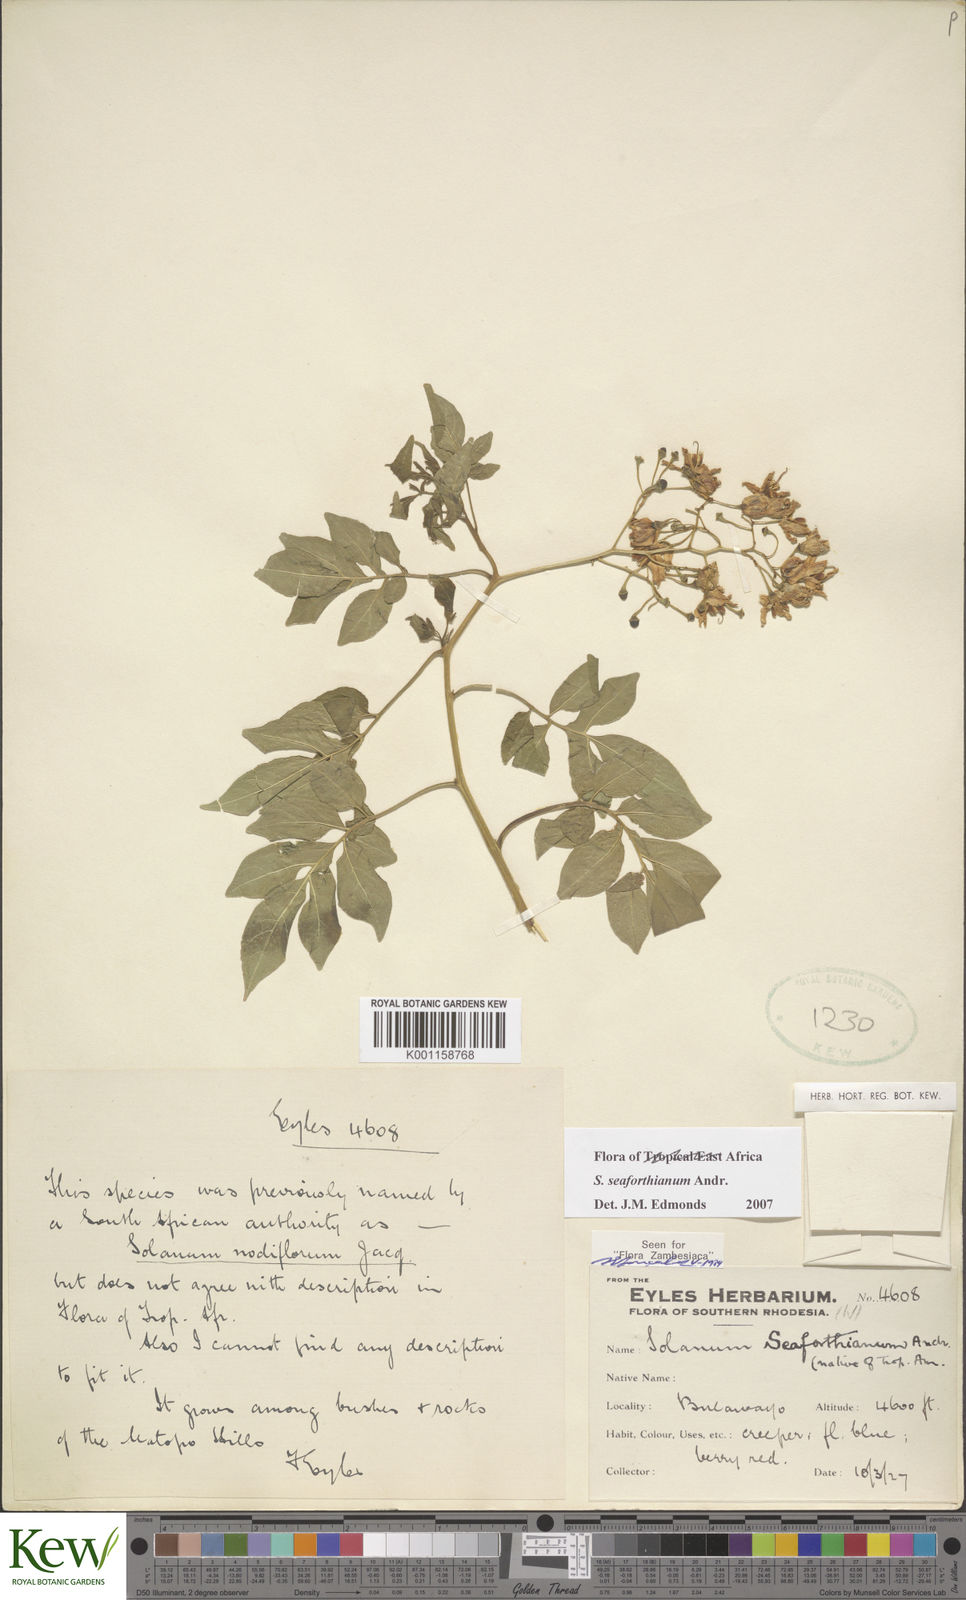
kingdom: Plantae
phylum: Tracheophyta
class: Magnoliopsida
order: Solanales
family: Solanaceae
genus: Solanum
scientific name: Solanum seaforthianum
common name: Brazilian nightshade
